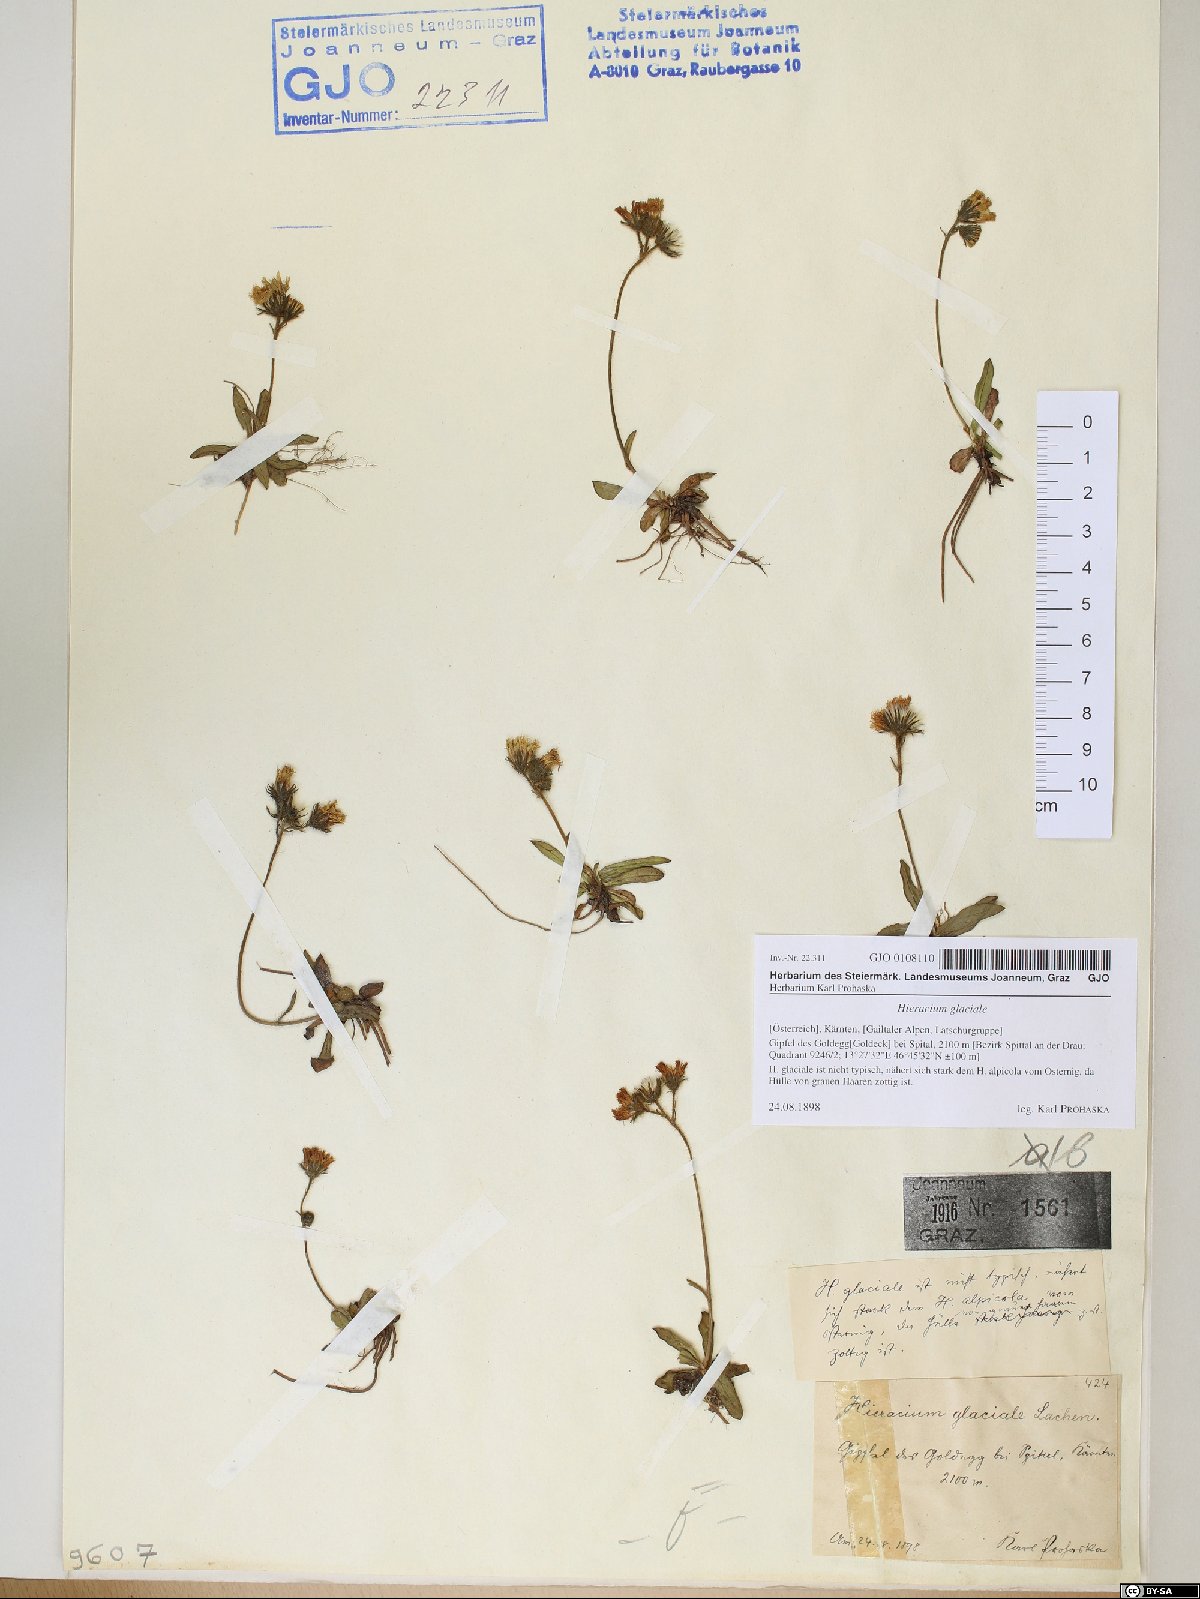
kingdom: Plantae
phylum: Tracheophyta
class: Magnoliopsida
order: Asterales
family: Asteraceae
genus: Pilosella
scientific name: Pilosella glacialis
